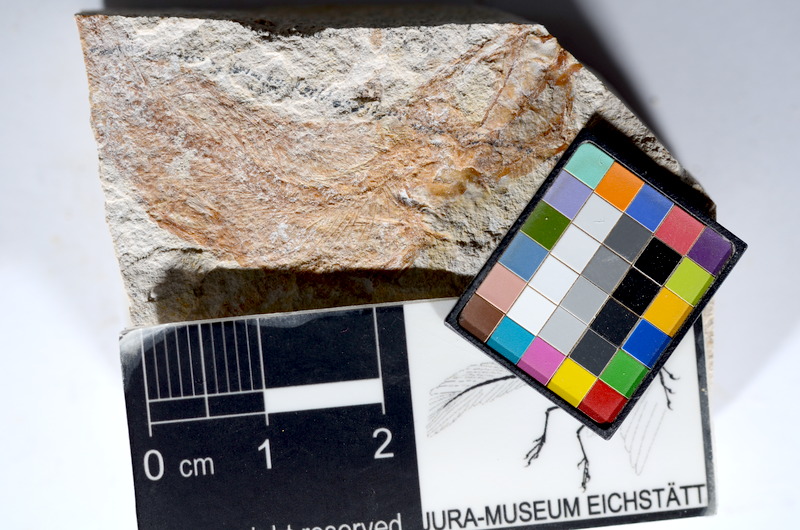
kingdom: Animalia
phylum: Chordata
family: Ascalaboidae
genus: Tharsis
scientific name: Tharsis dubius
